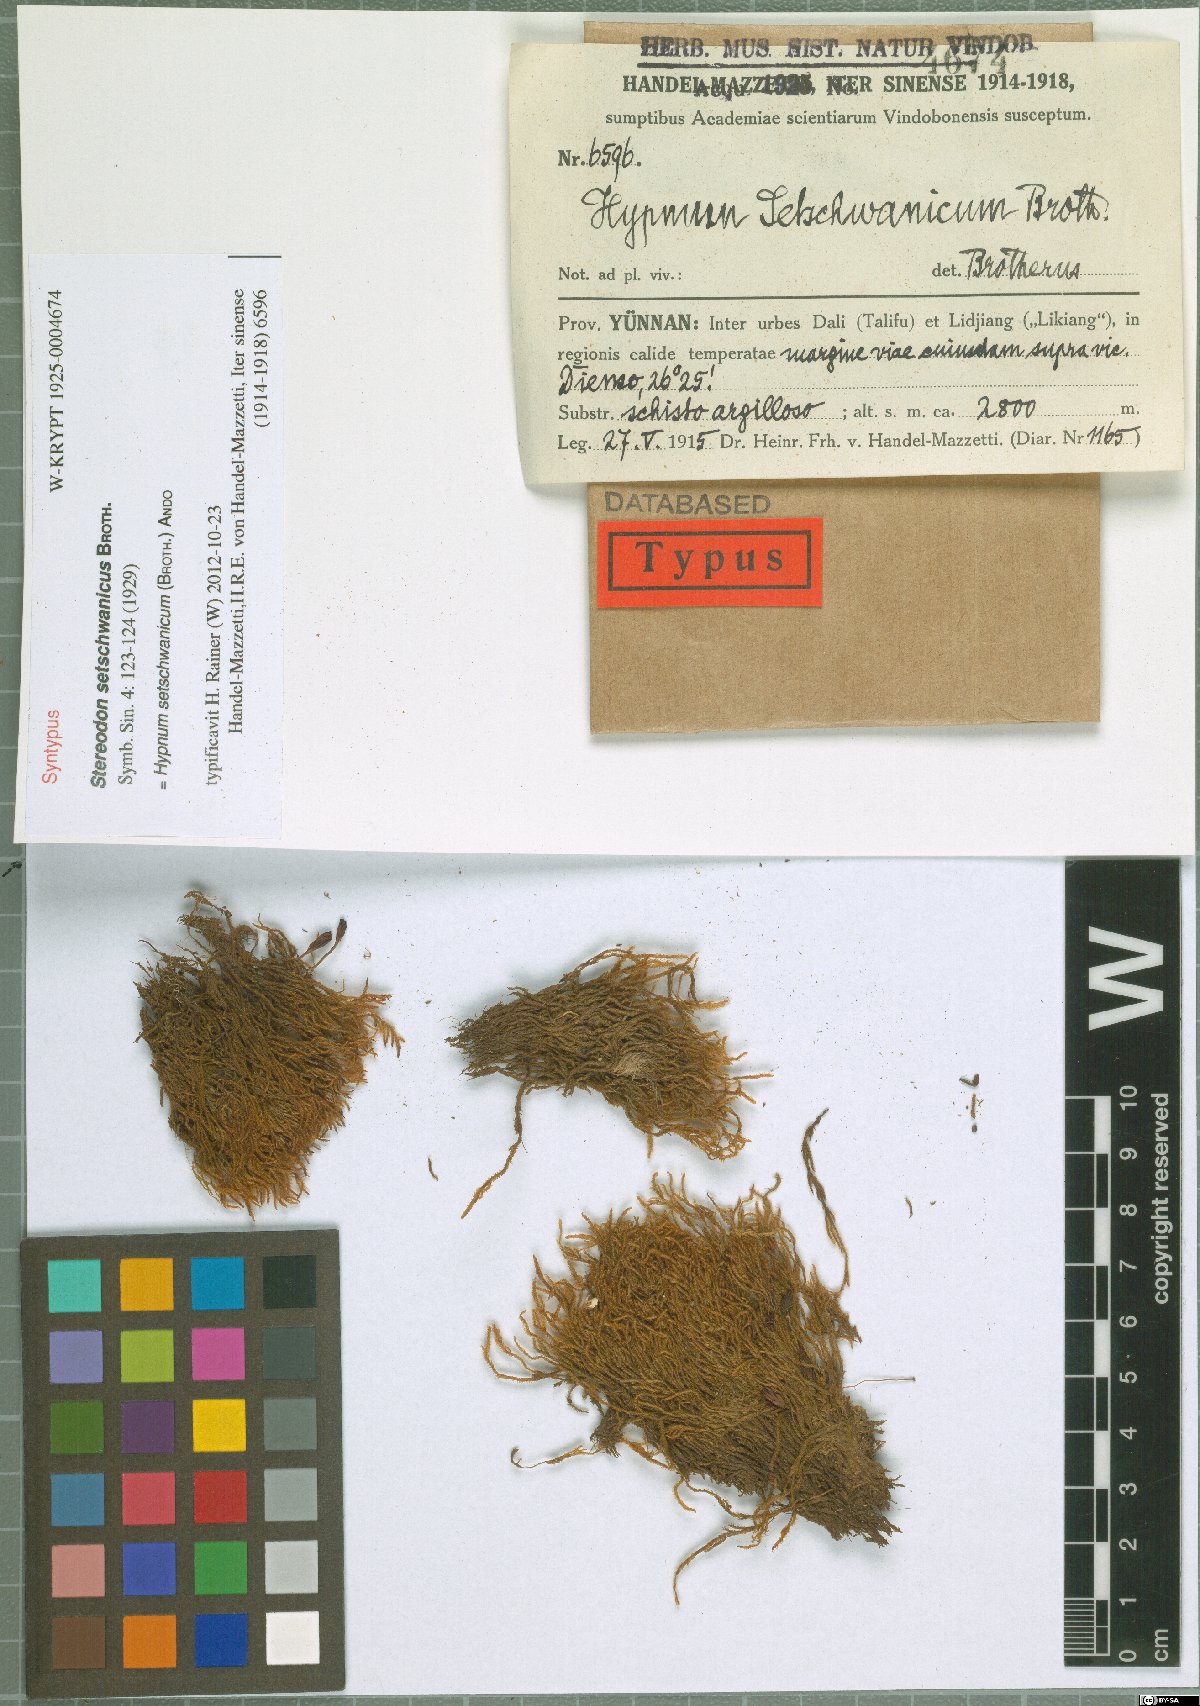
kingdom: Plantae
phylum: Bryophyta
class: Bryopsida
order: Hypnales
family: Hypnaceae
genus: Hypnum
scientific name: Hypnum setschwanicum
